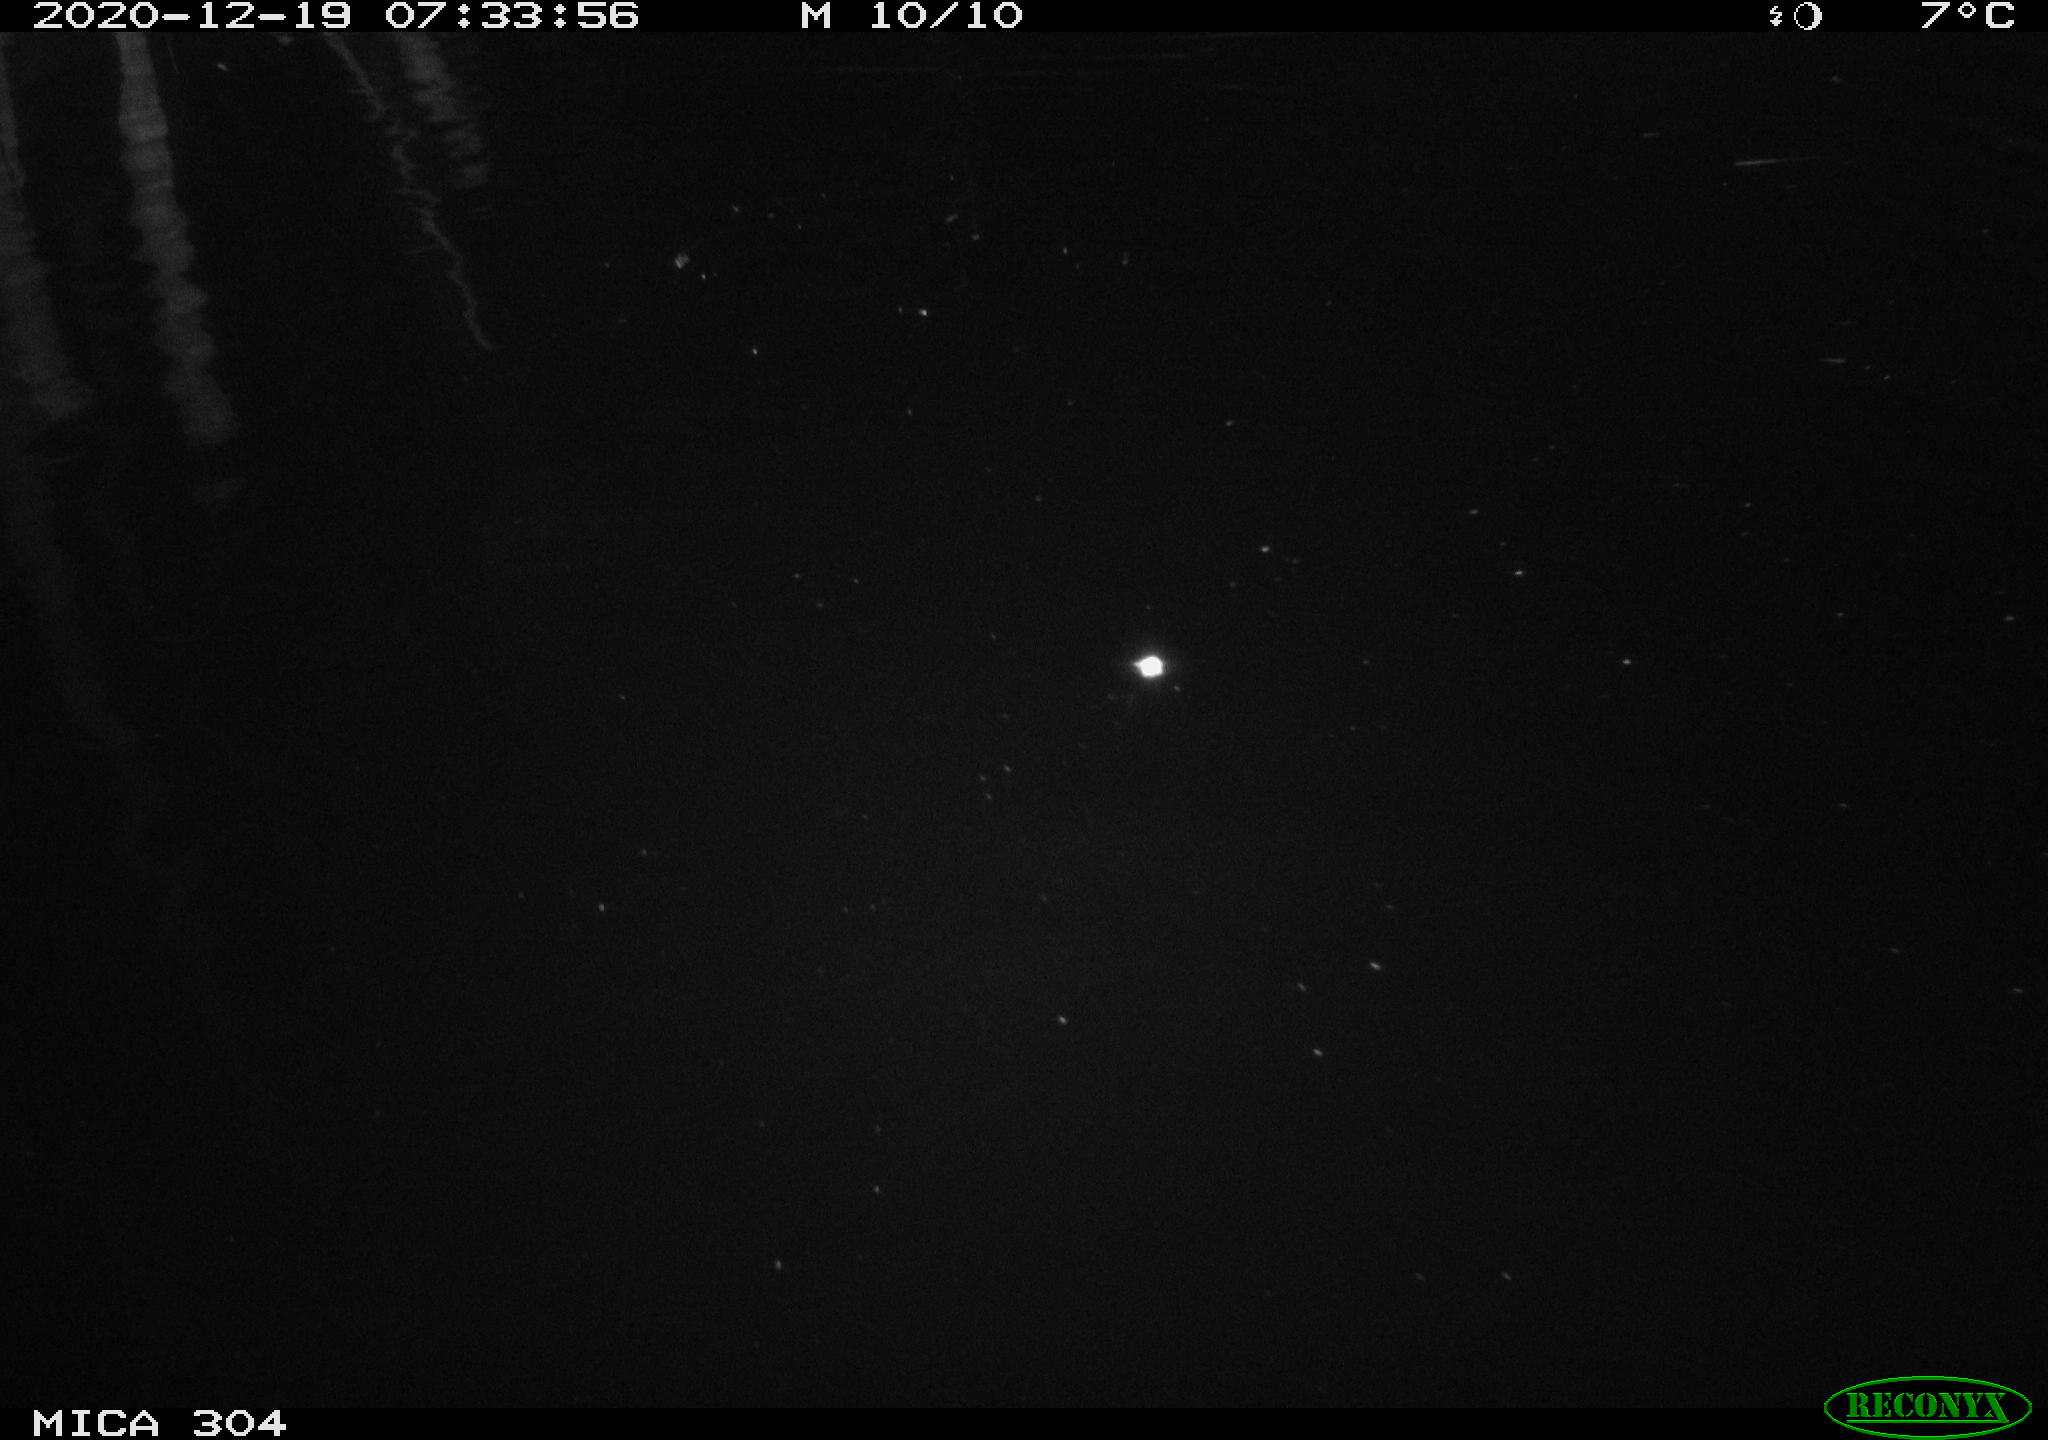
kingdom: Animalia
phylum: Chordata
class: Aves
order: Gruiformes
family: Rallidae
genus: Gallinula
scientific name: Gallinula chloropus
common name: Common moorhen
